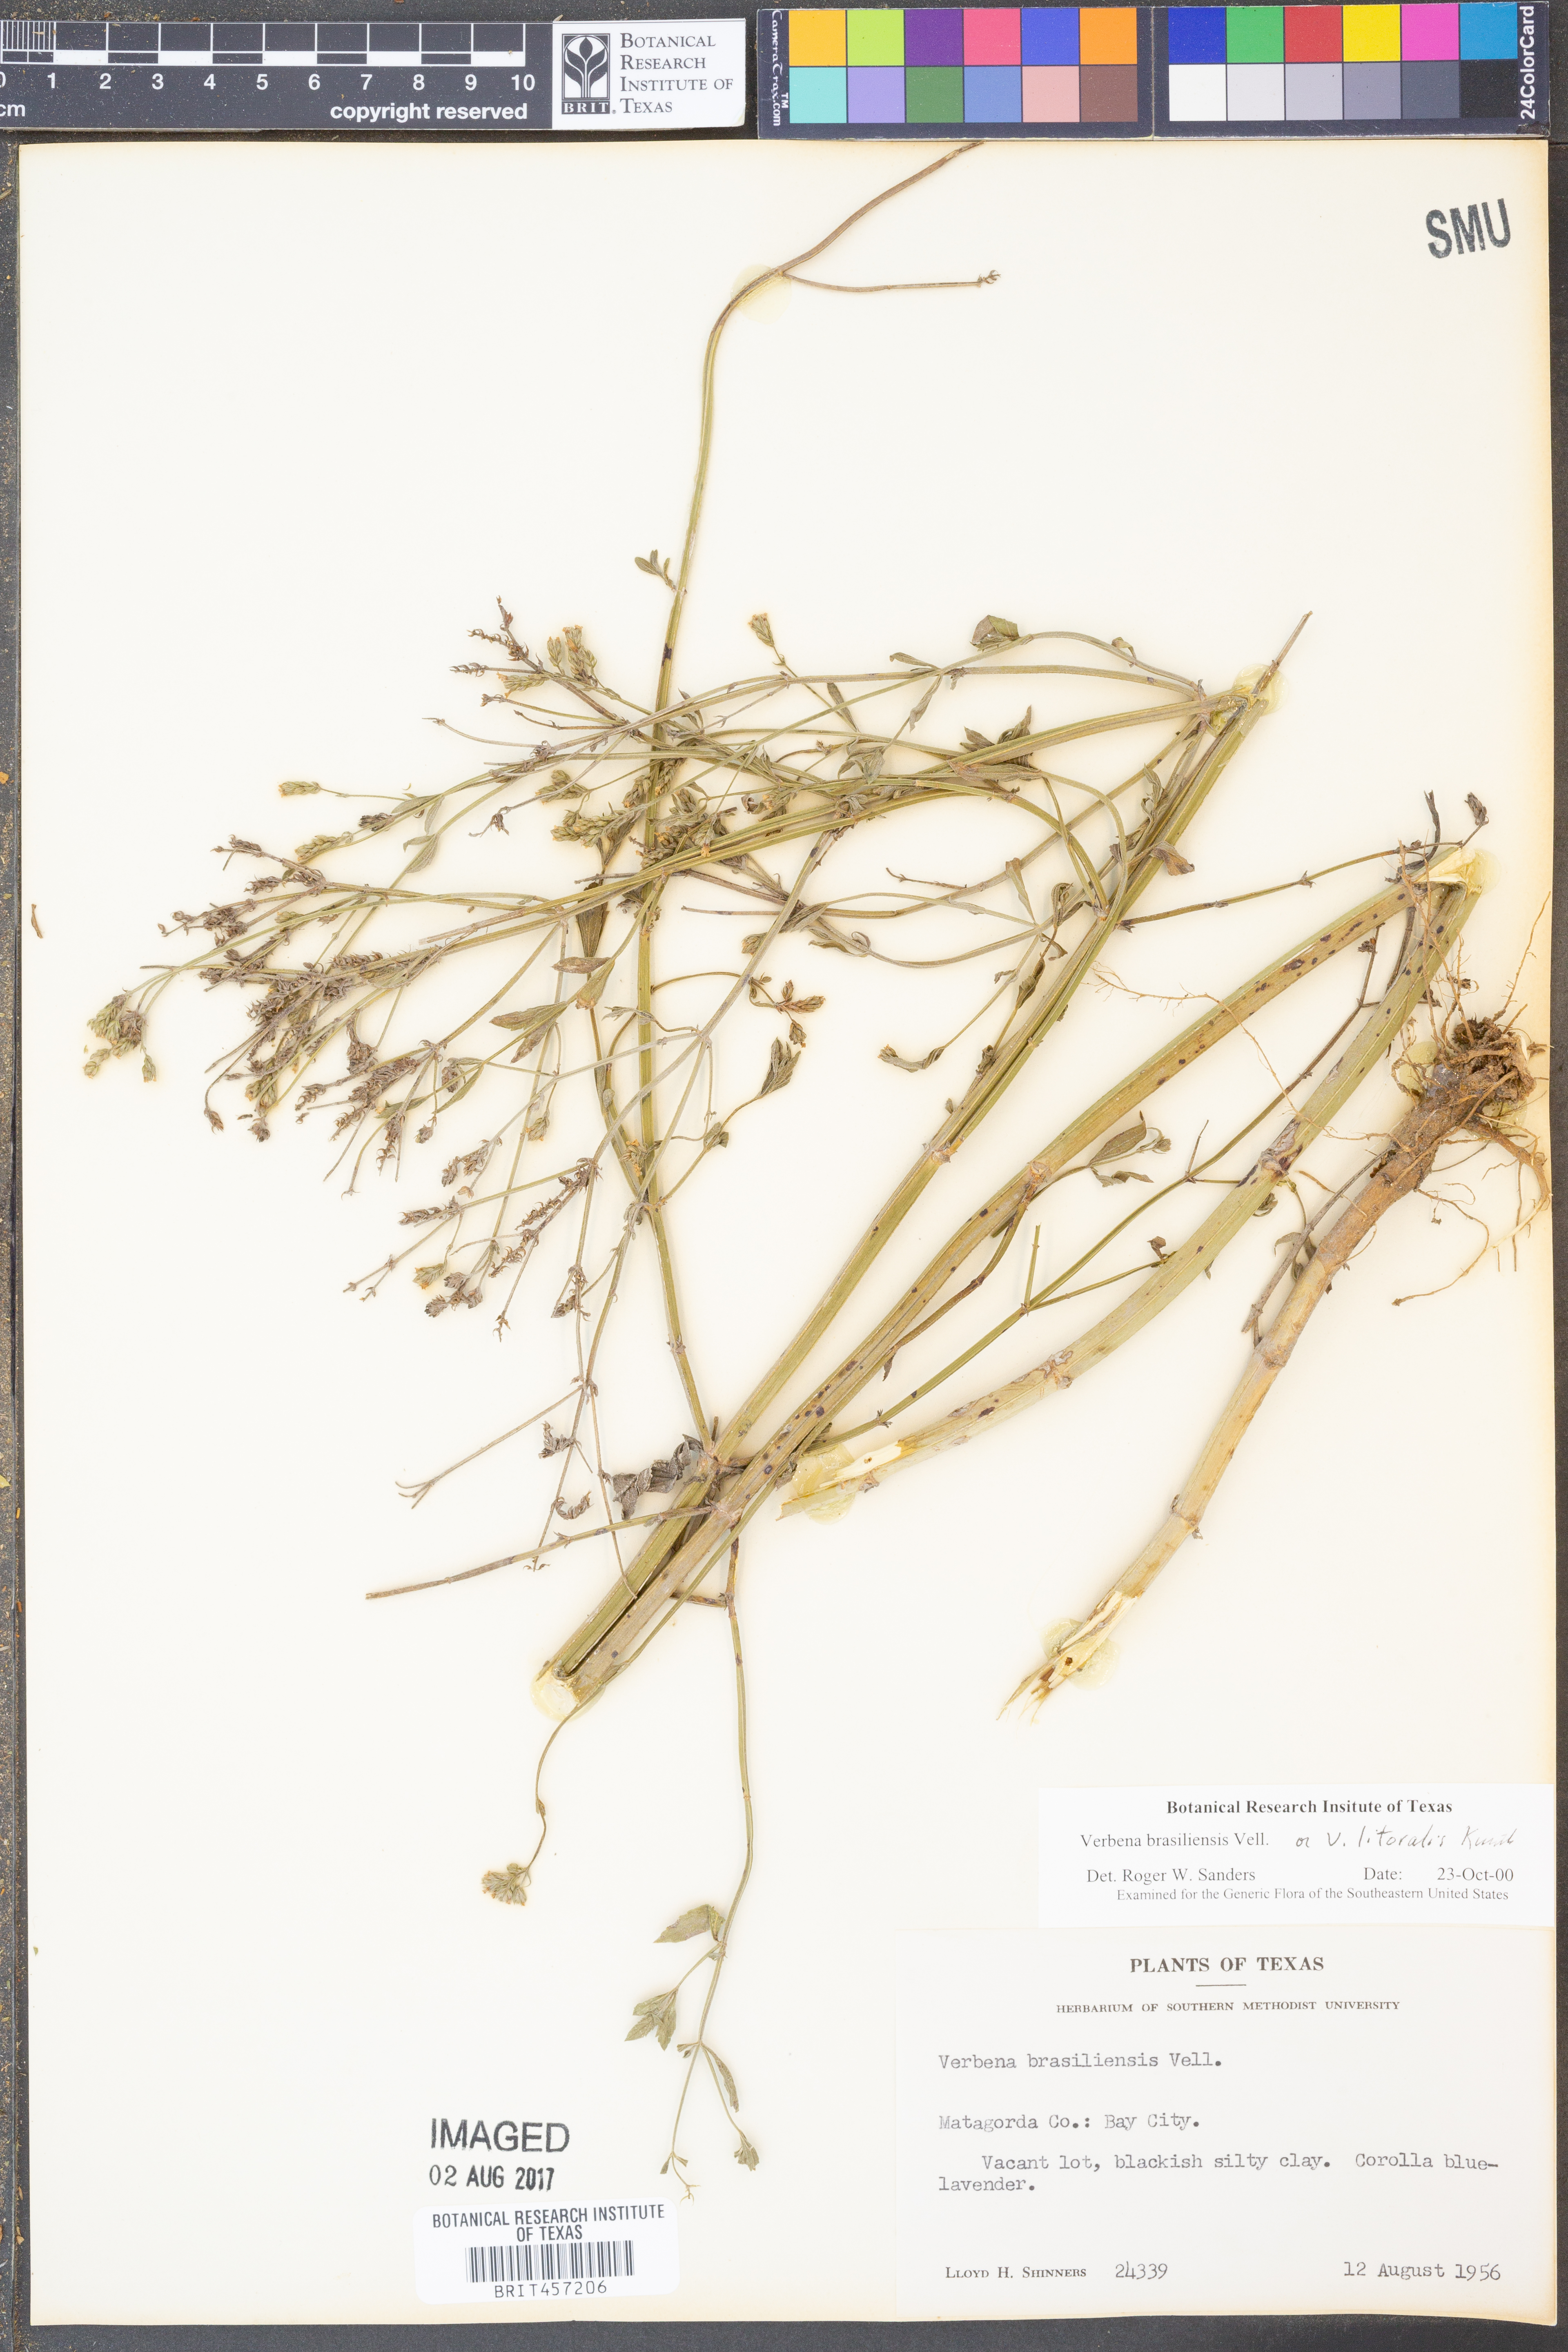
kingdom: Plantae
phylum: Tracheophyta
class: Magnoliopsida
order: Lamiales
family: Verbenaceae
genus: Verbena
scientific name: Verbena brasiliensis
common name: Brazilian vervain
